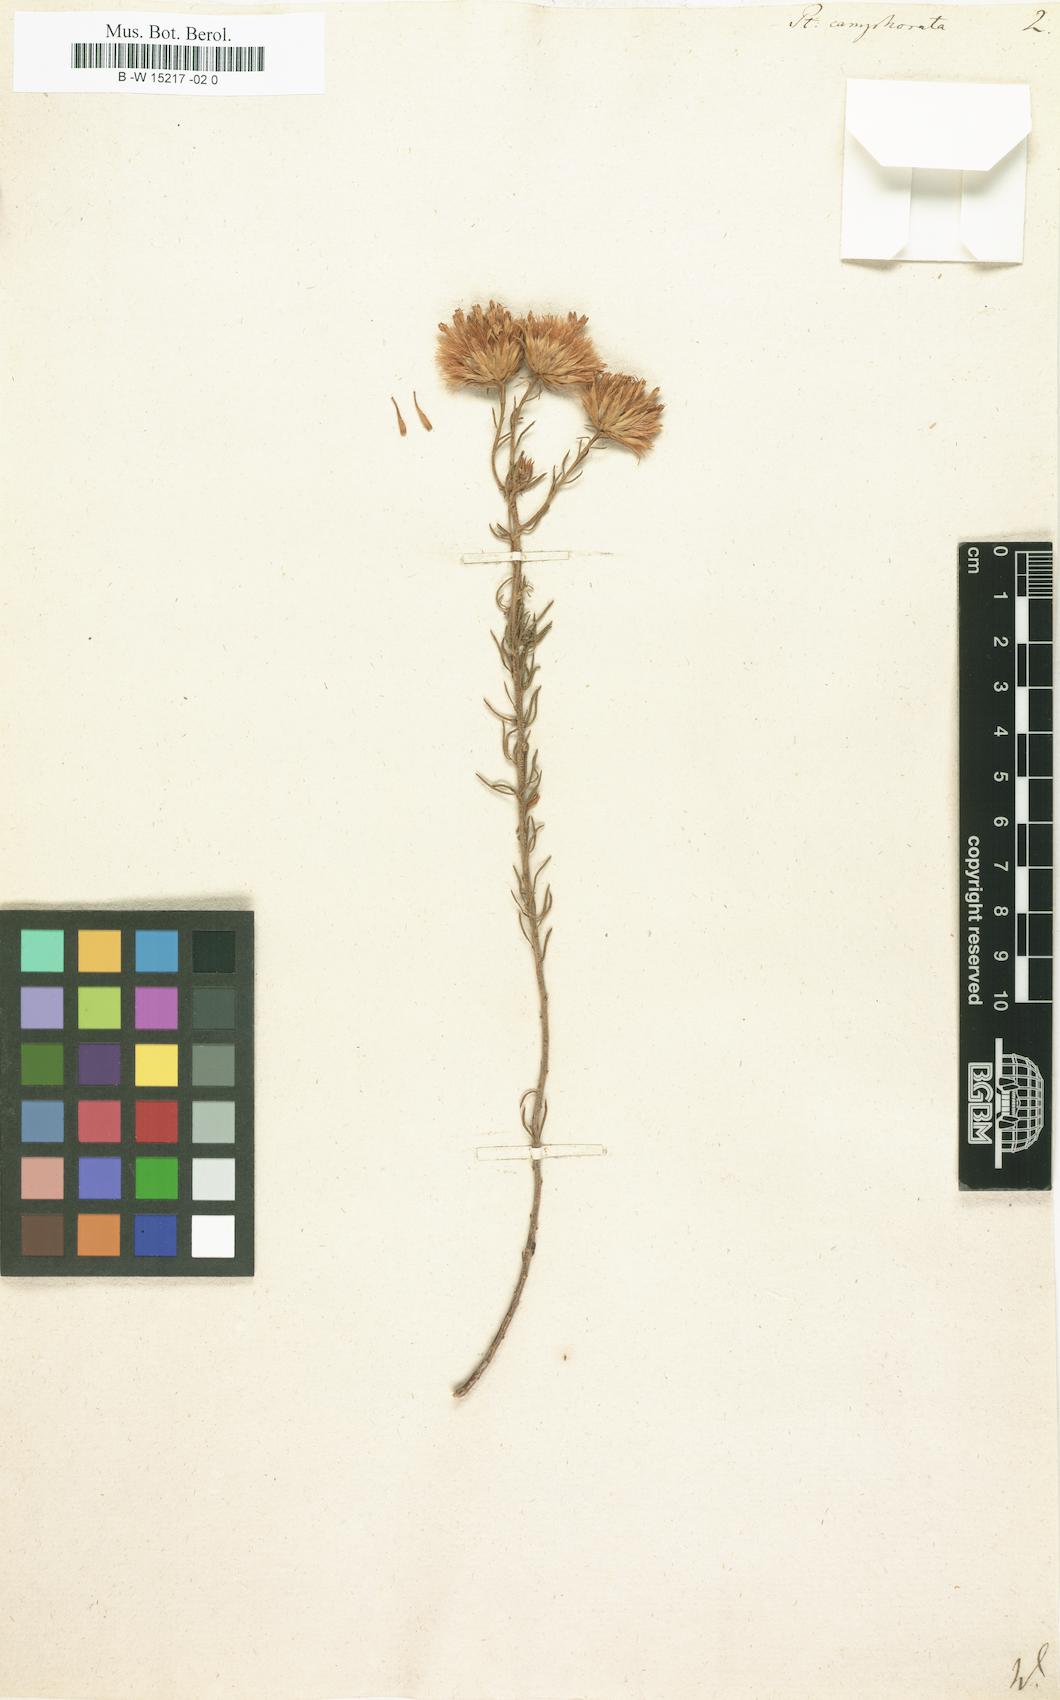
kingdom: Plantae
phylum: Tracheophyta
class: Magnoliopsida
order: Asterales
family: Asteraceae
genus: Pteronia
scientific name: Pteronia camphorata
